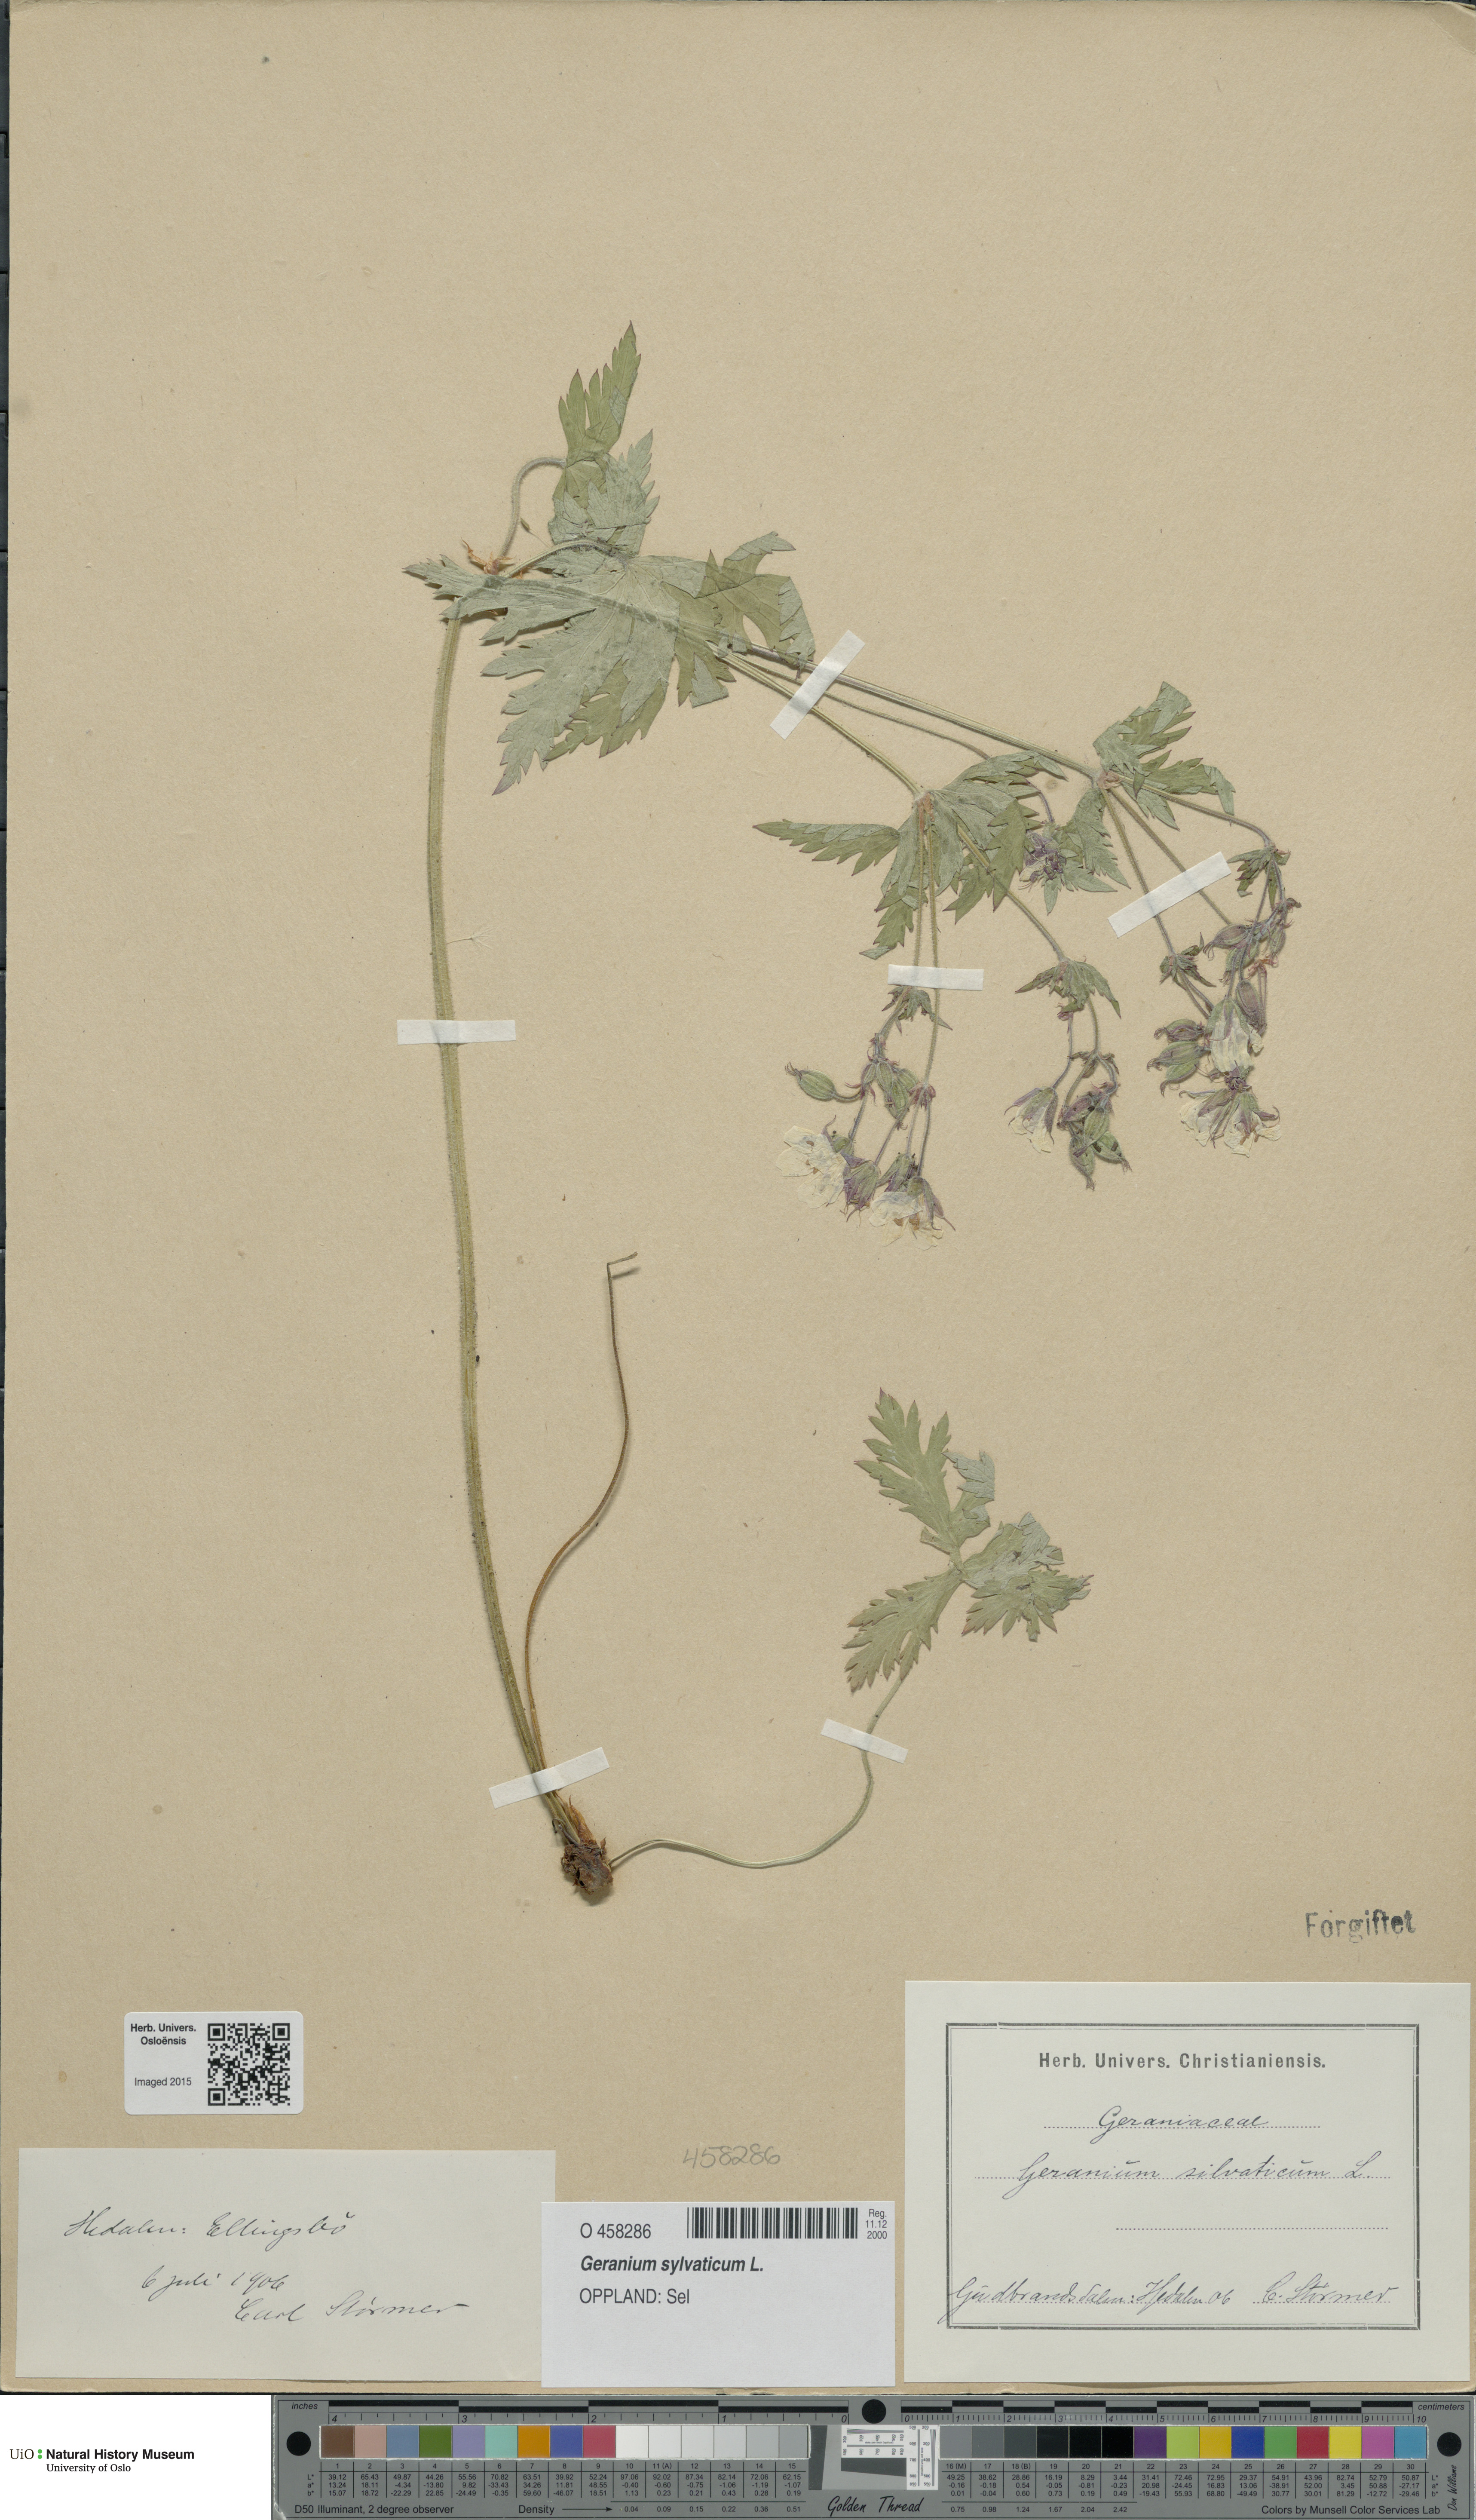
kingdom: Plantae
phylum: Tracheophyta
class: Magnoliopsida
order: Geraniales
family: Geraniaceae
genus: Geranium
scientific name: Geranium sylvaticum
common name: Wood crane's-bill
